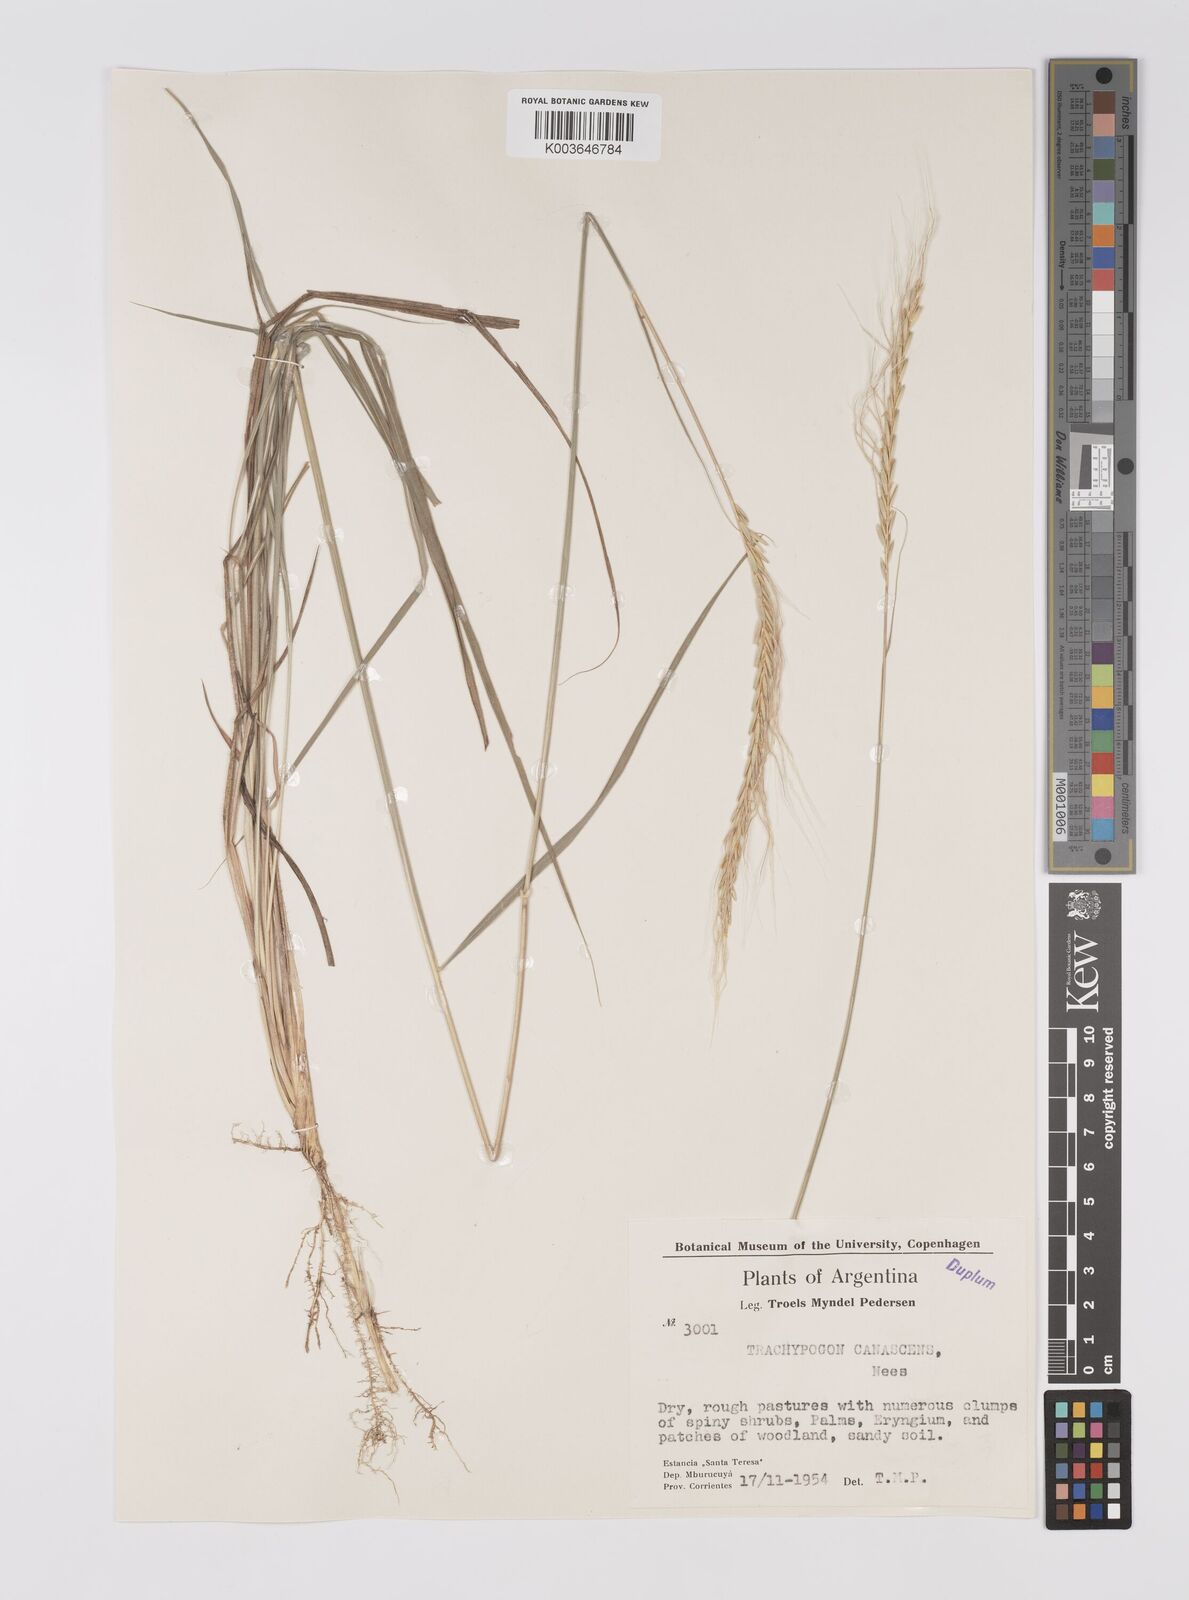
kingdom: Plantae
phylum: Tracheophyta
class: Liliopsida
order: Poales
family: Poaceae
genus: Trachypogon
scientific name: Trachypogon spicatus
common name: Crinkle-awn
